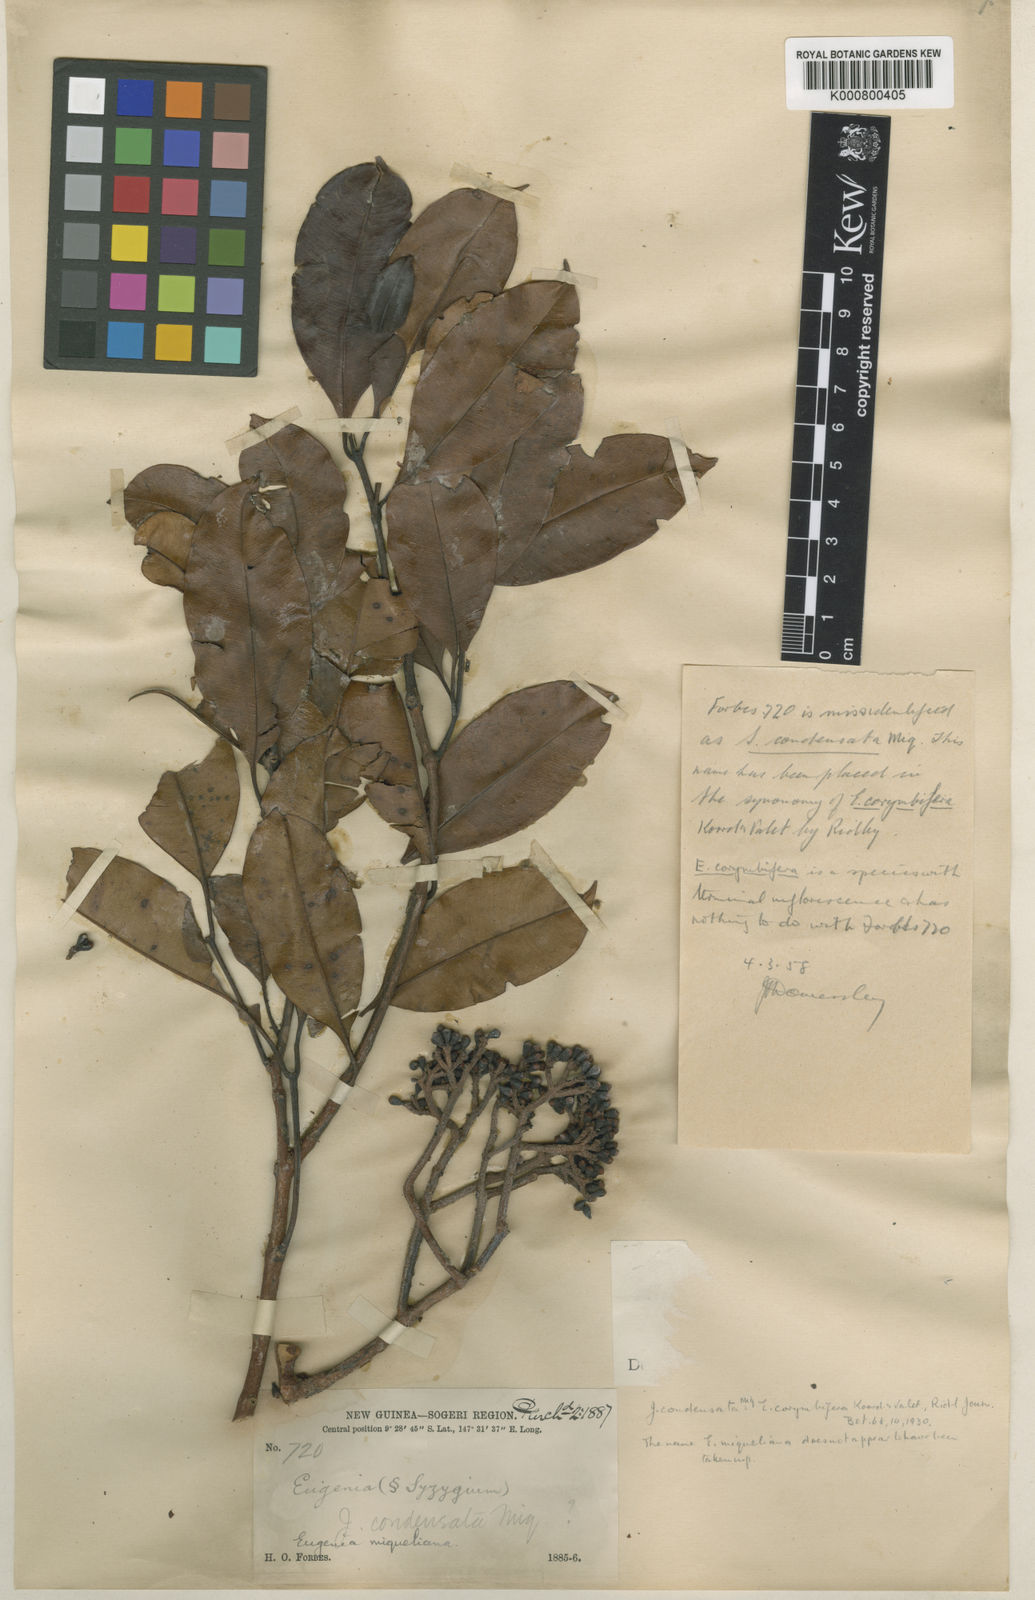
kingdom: Plantae
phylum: Tracheophyta
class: Magnoliopsida
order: Myrtales
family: Myrtaceae
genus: Syzygium
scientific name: Syzygium
